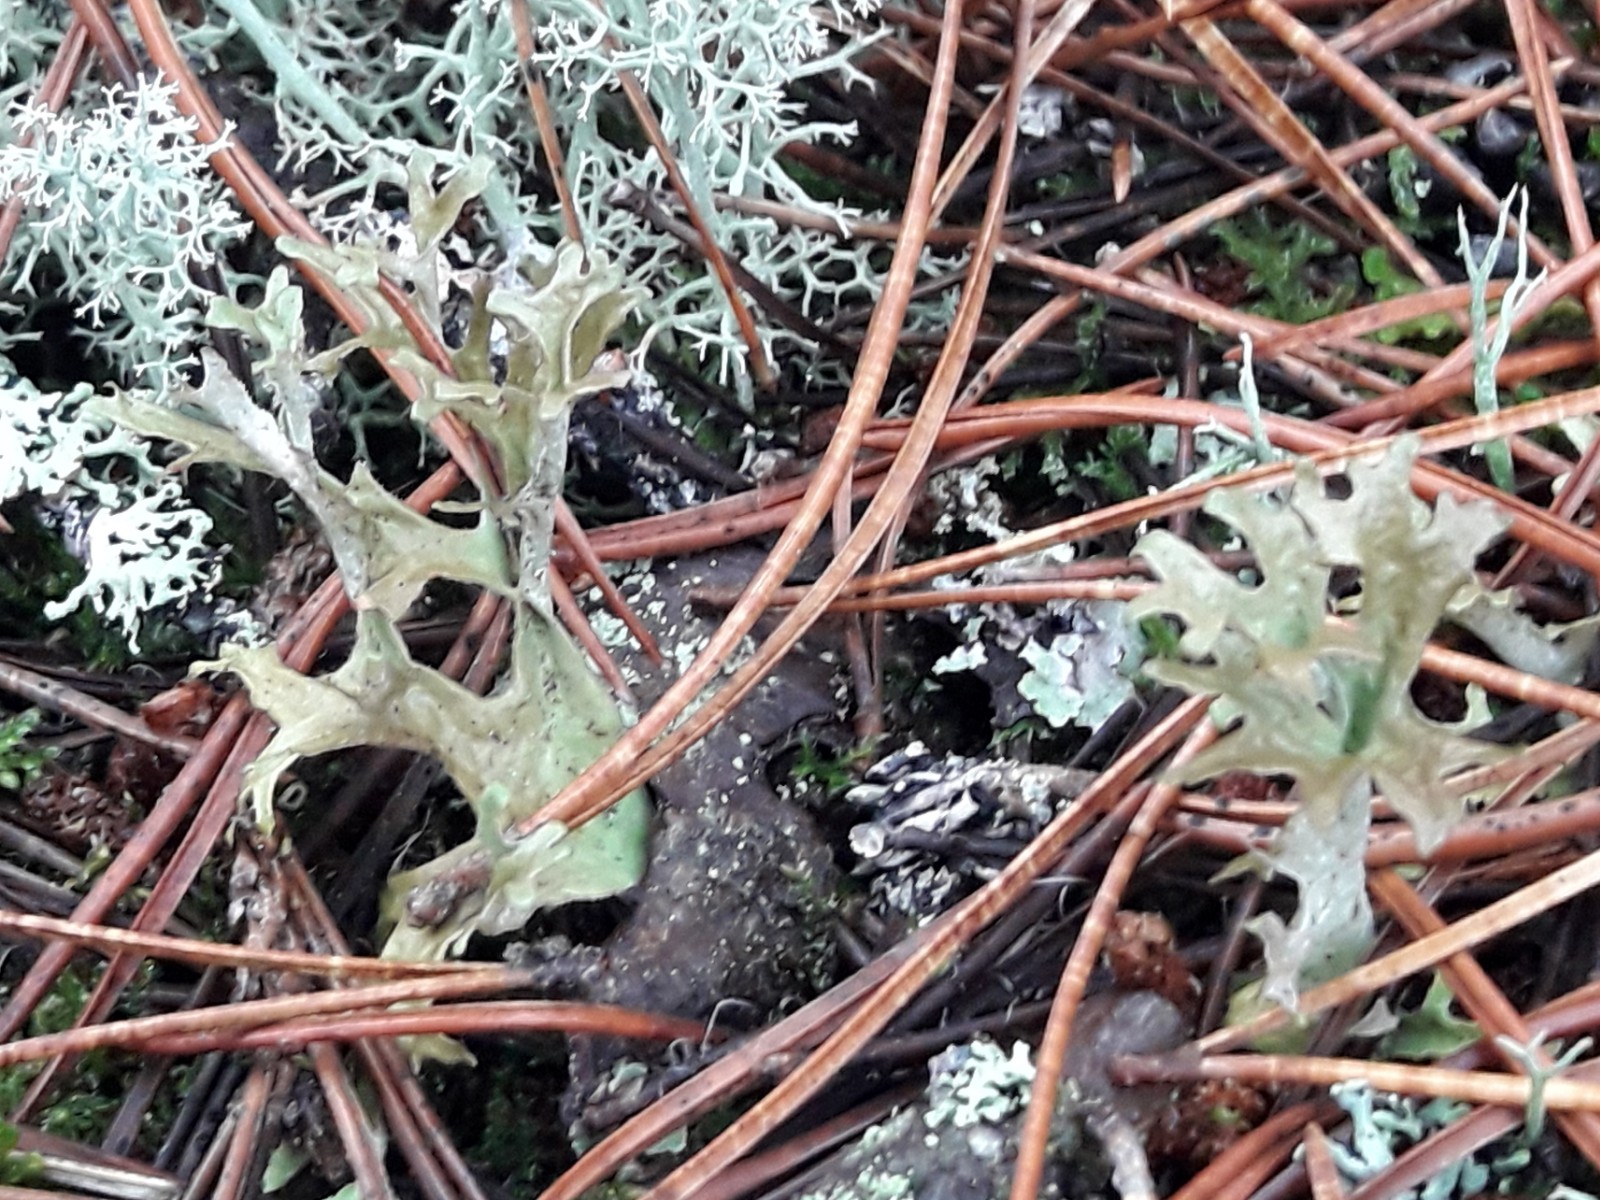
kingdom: Fungi
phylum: Ascomycota
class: Lecanoromycetes
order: Lecanorales
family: Parmeliaceae
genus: Cetraria
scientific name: Cetraria islandica
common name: islandsk kruslav
